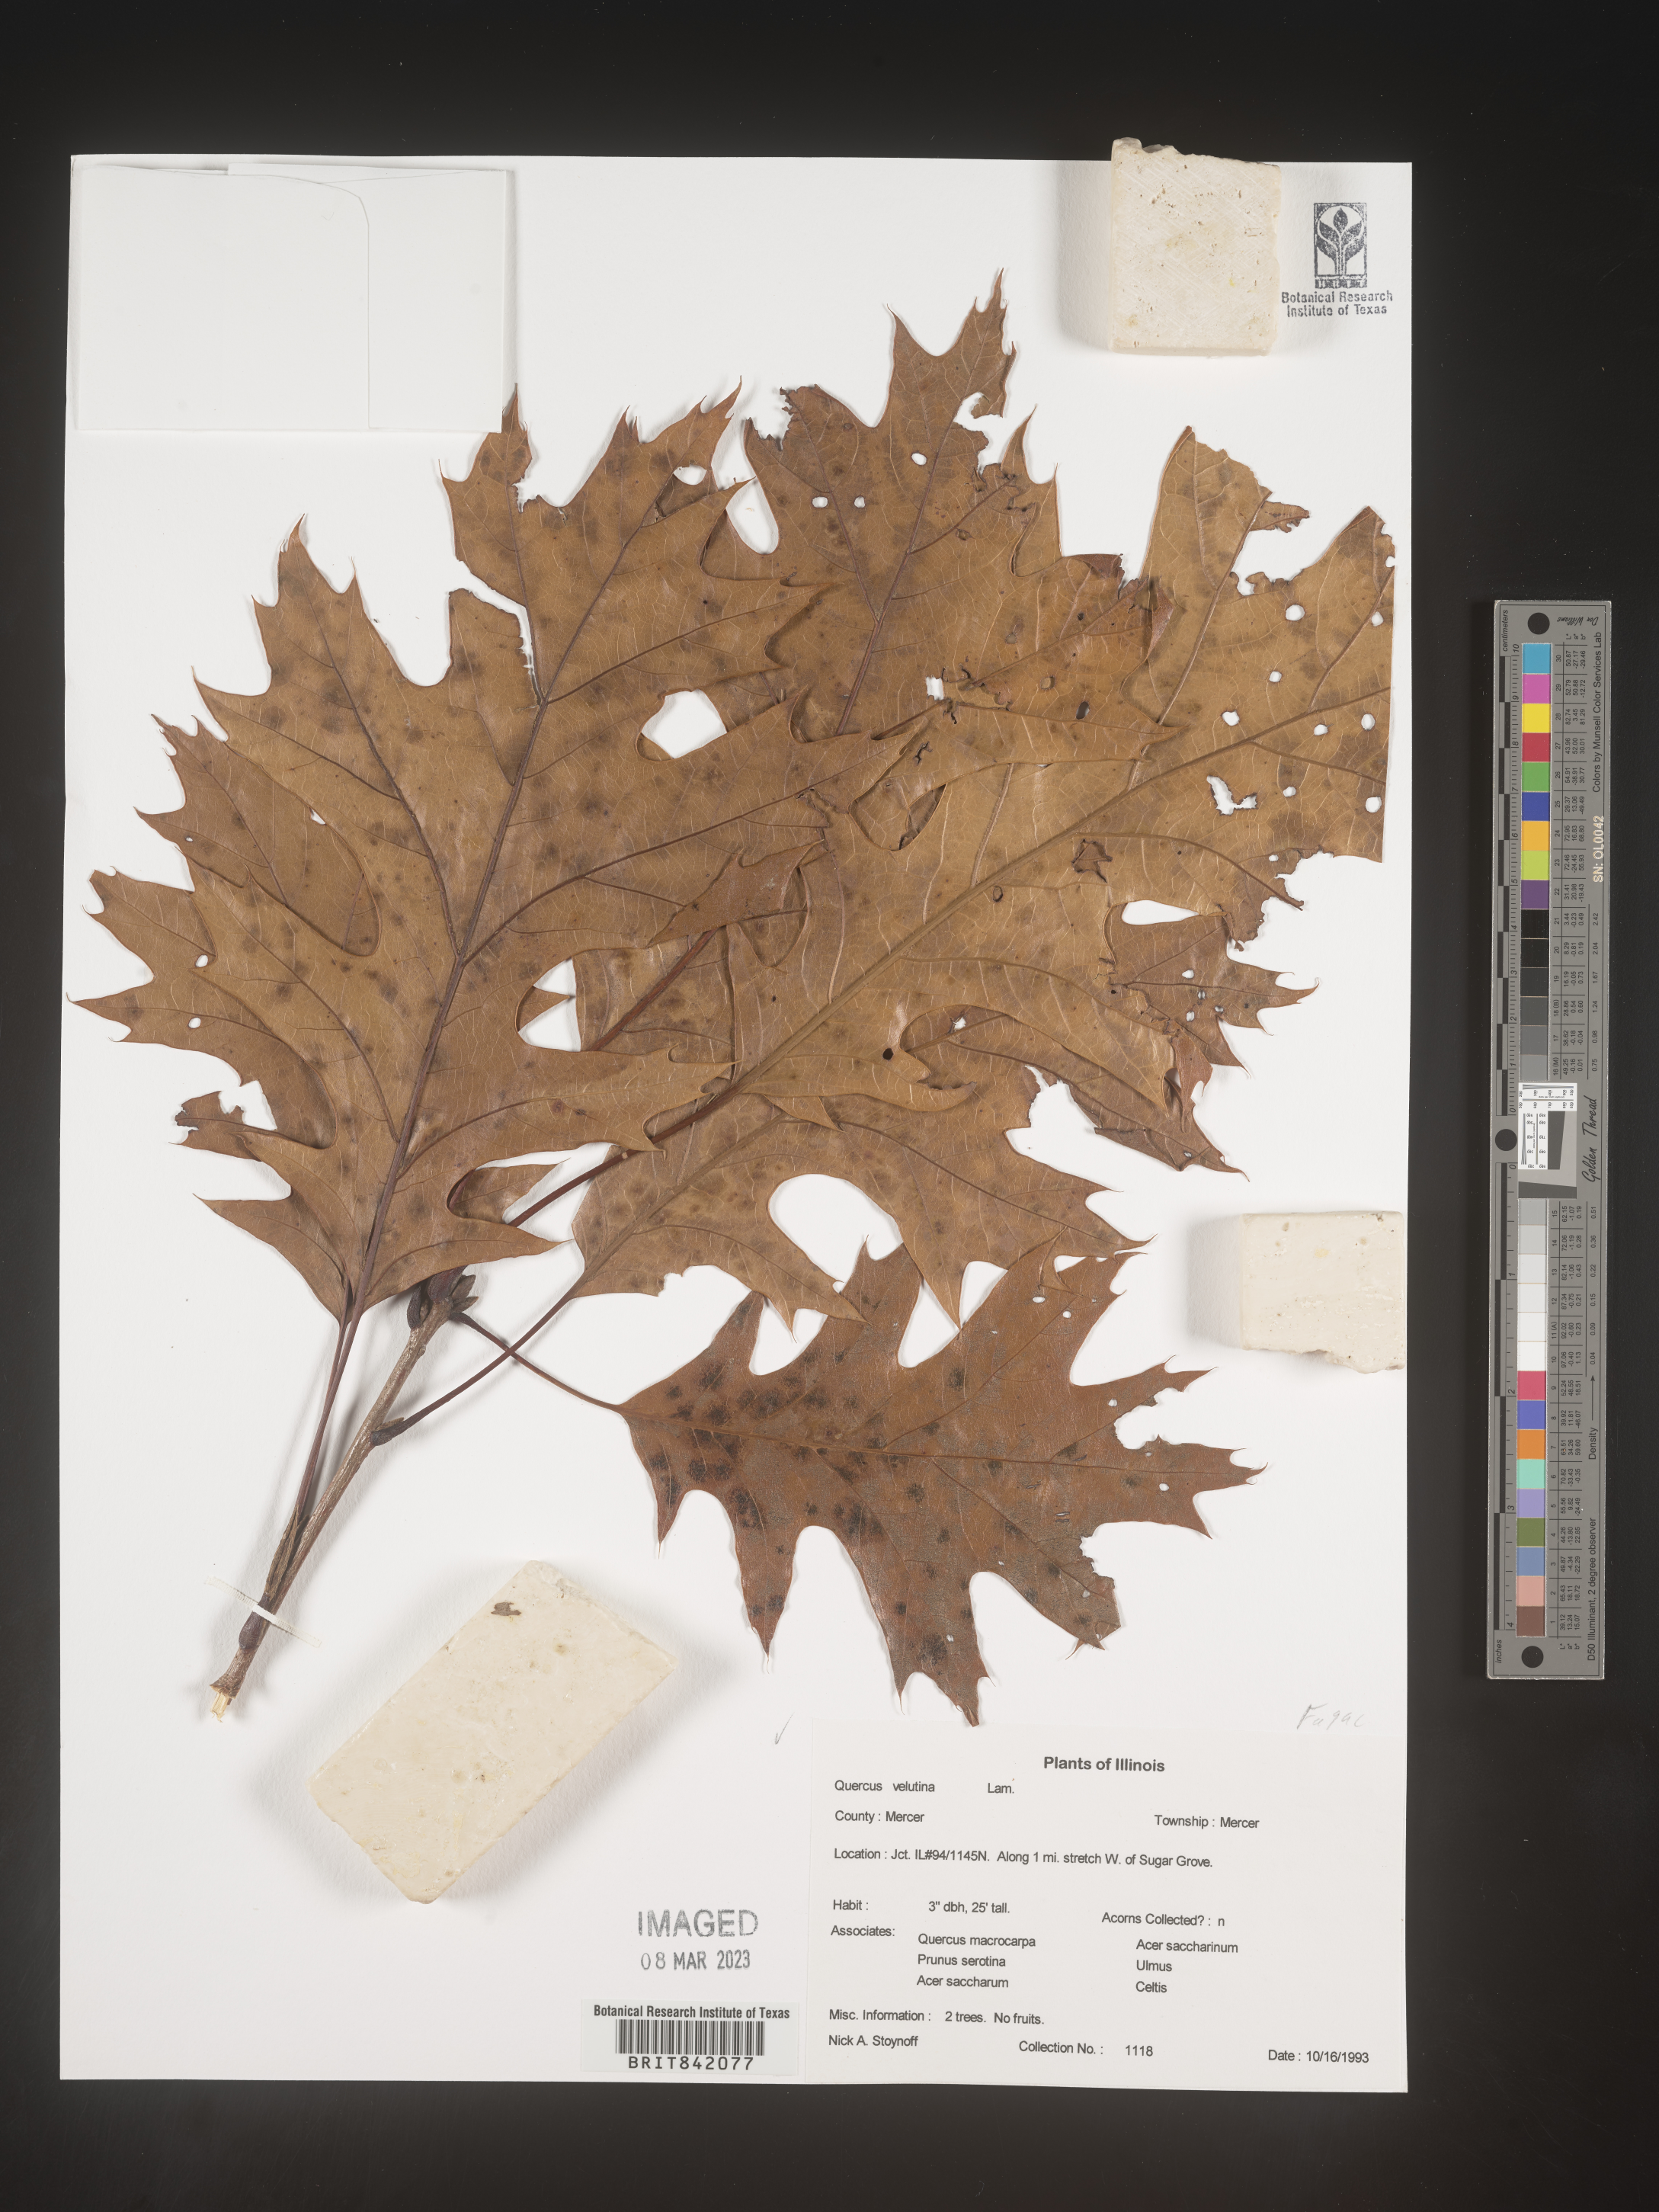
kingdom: Plantae
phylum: Tracheophyta
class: Magnoliopsida
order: Fagales
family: Fagaceae
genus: Quercus
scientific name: Quercus velutina
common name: Black oak
